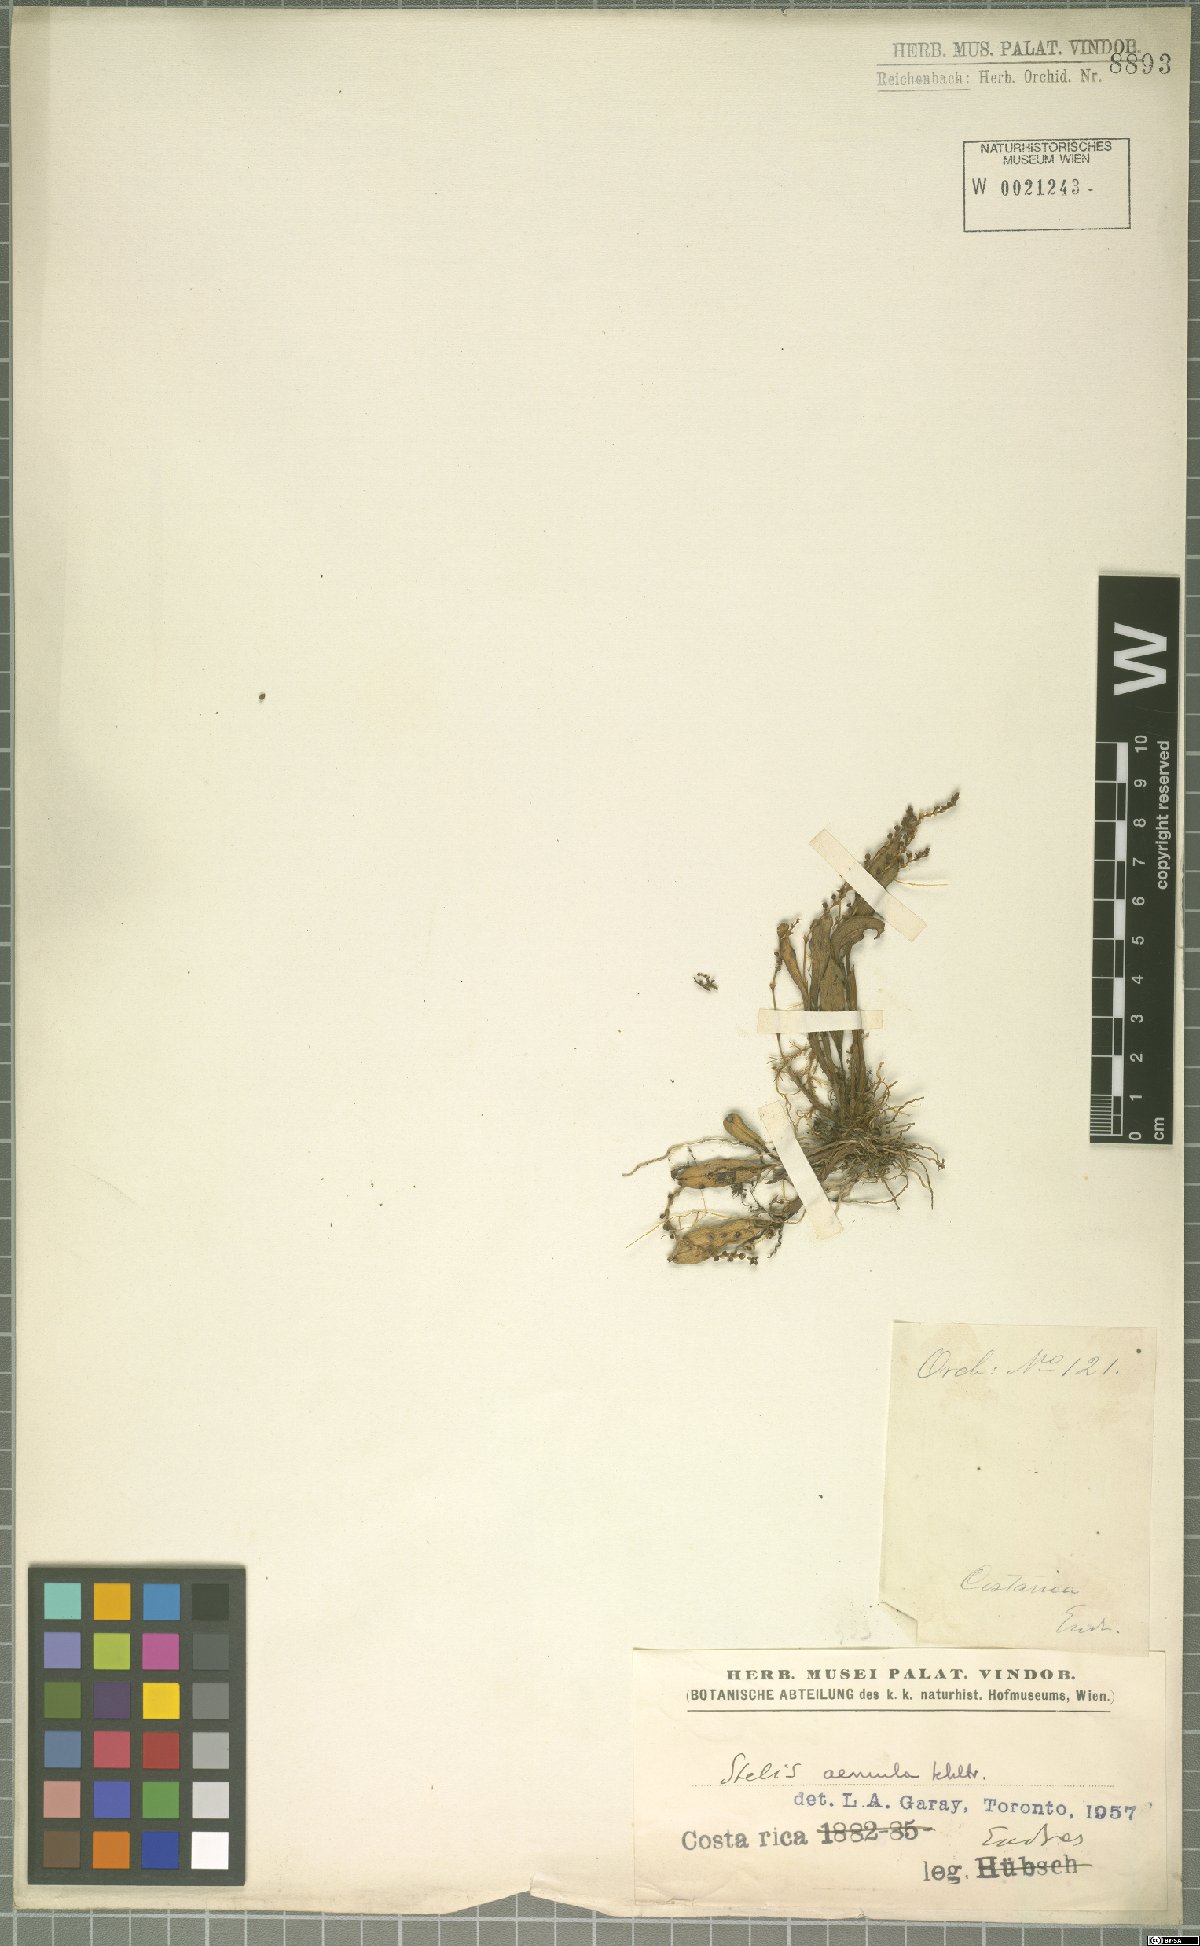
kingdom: Plantae
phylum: Tracheophyta
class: Liliopsida
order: Asparagales
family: Orchidaceae
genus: Stelis
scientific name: Stelis aemula
